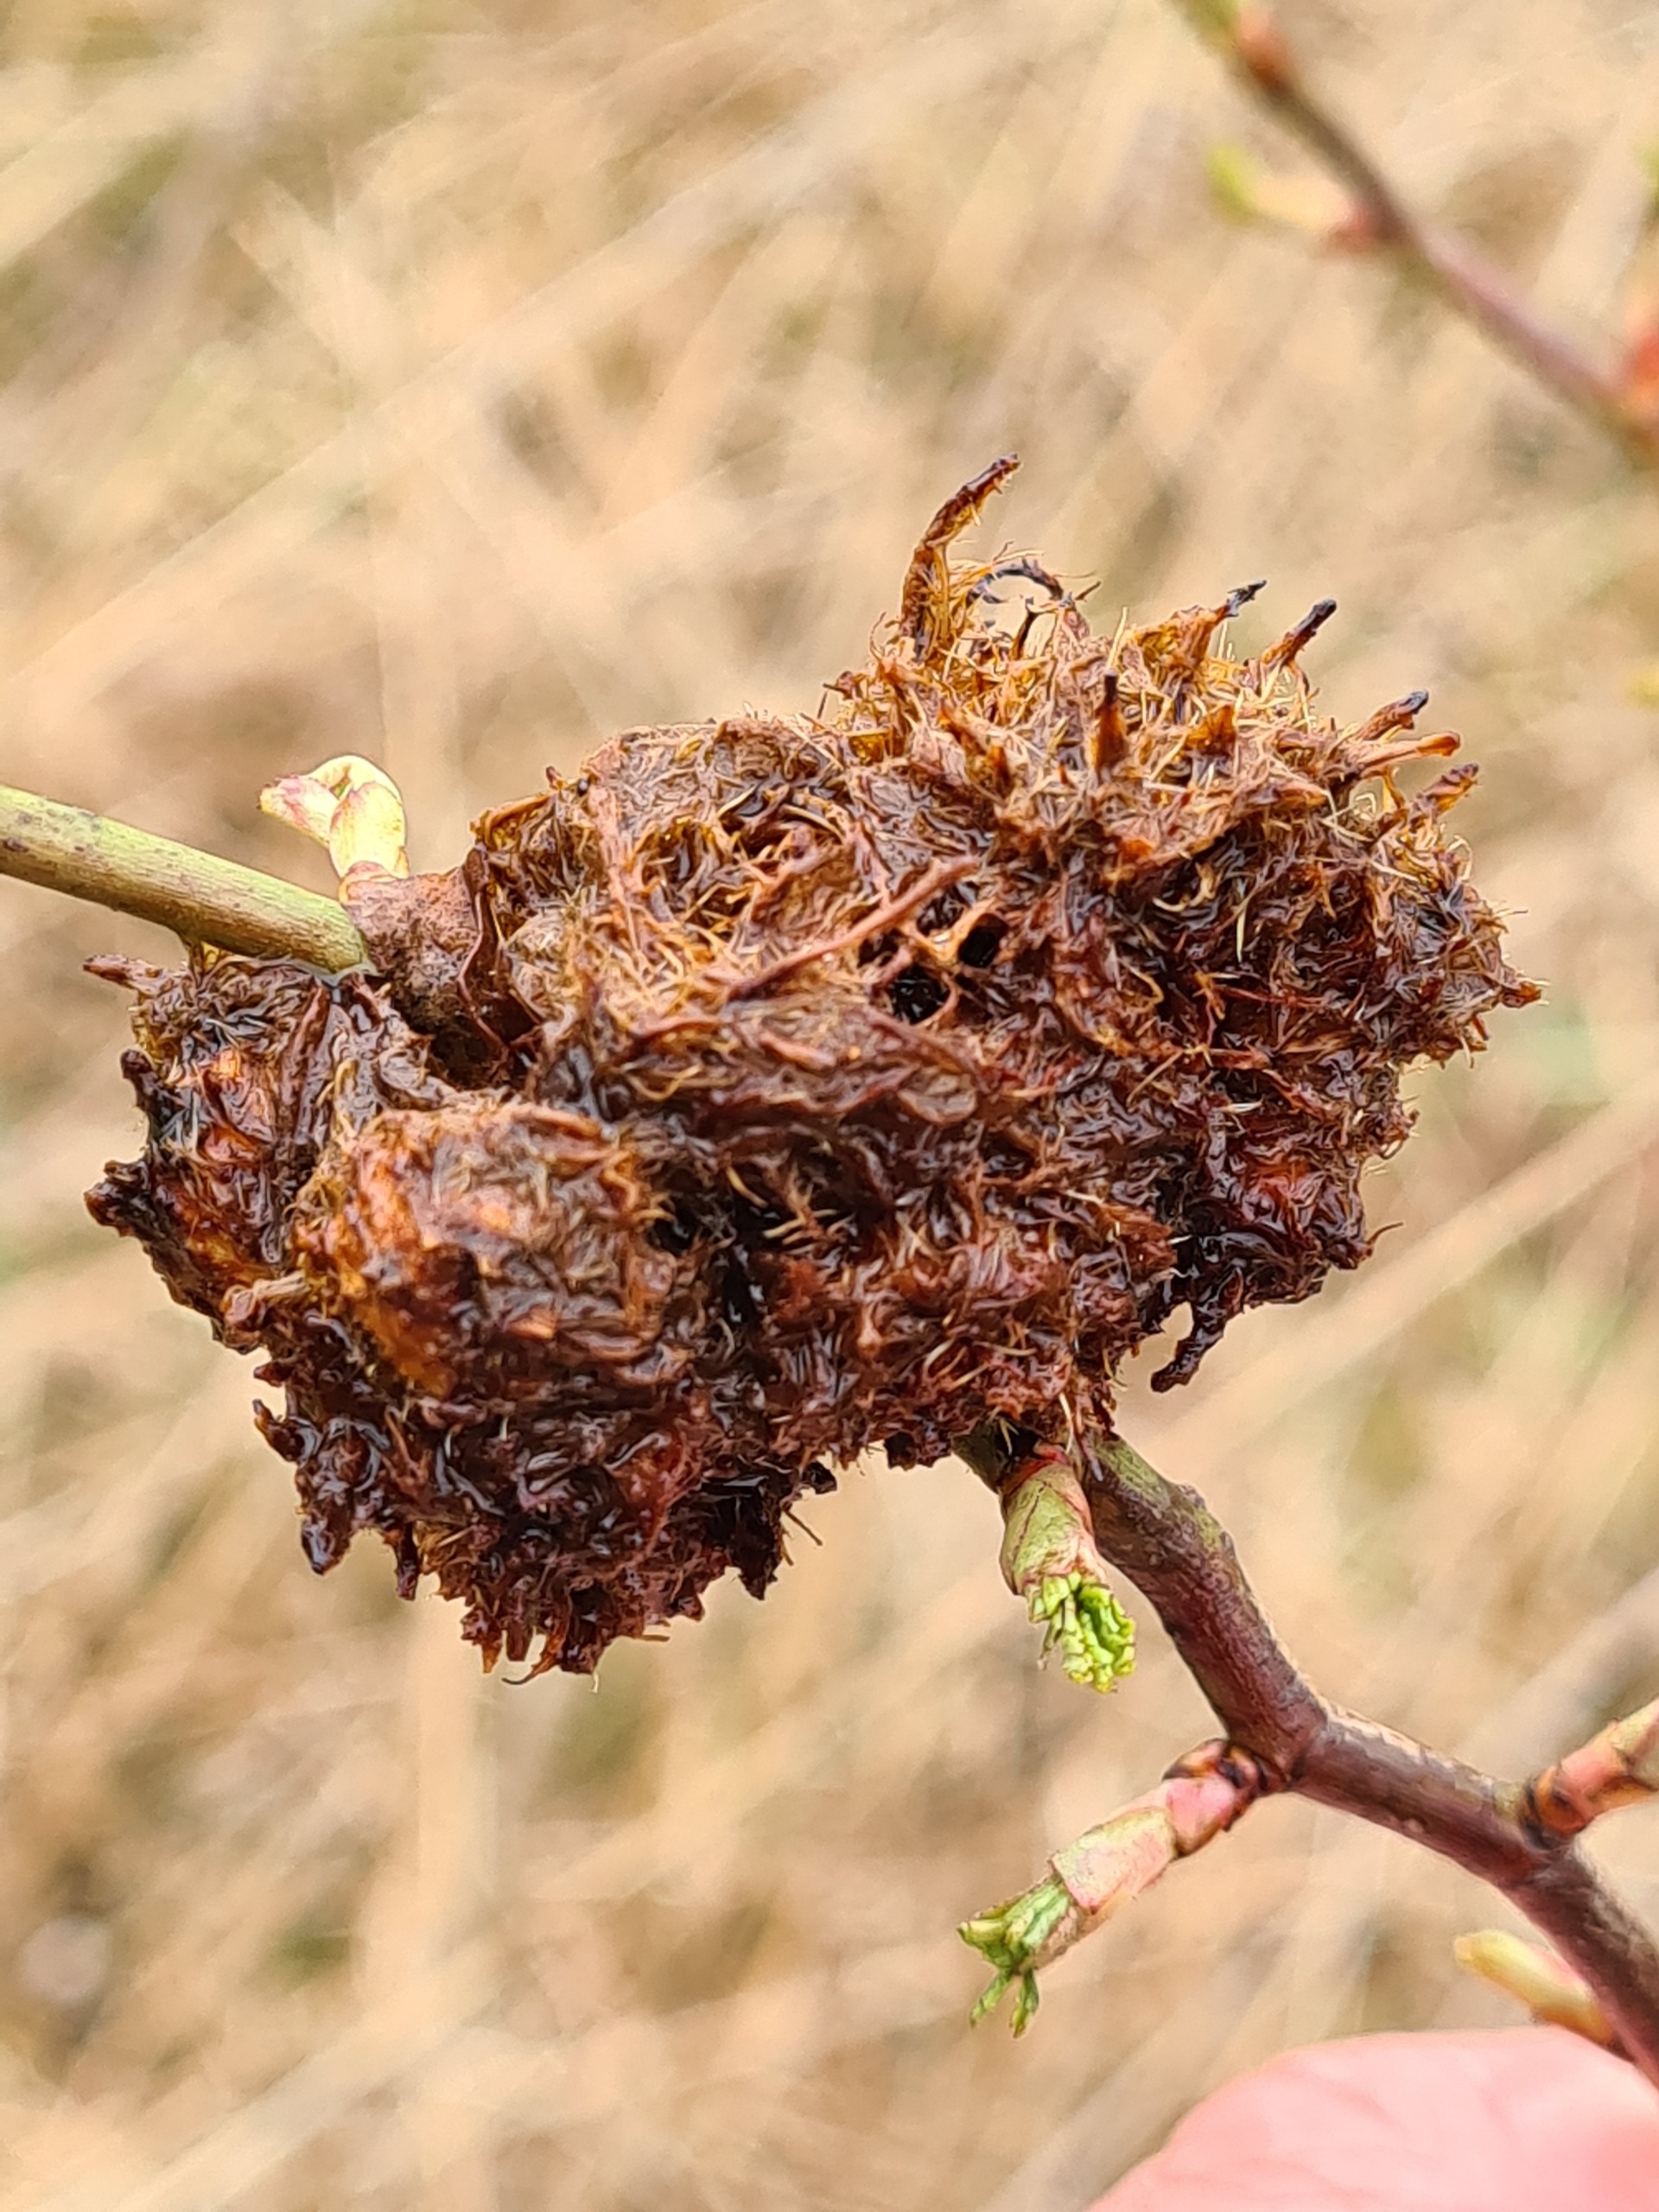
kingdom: Animalia
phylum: Arthropoda
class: Insecta
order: Hymenoptera
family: Cynipidae
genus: Diplolepis
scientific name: Diplolepis rosae
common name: Bedeguargalhveps
